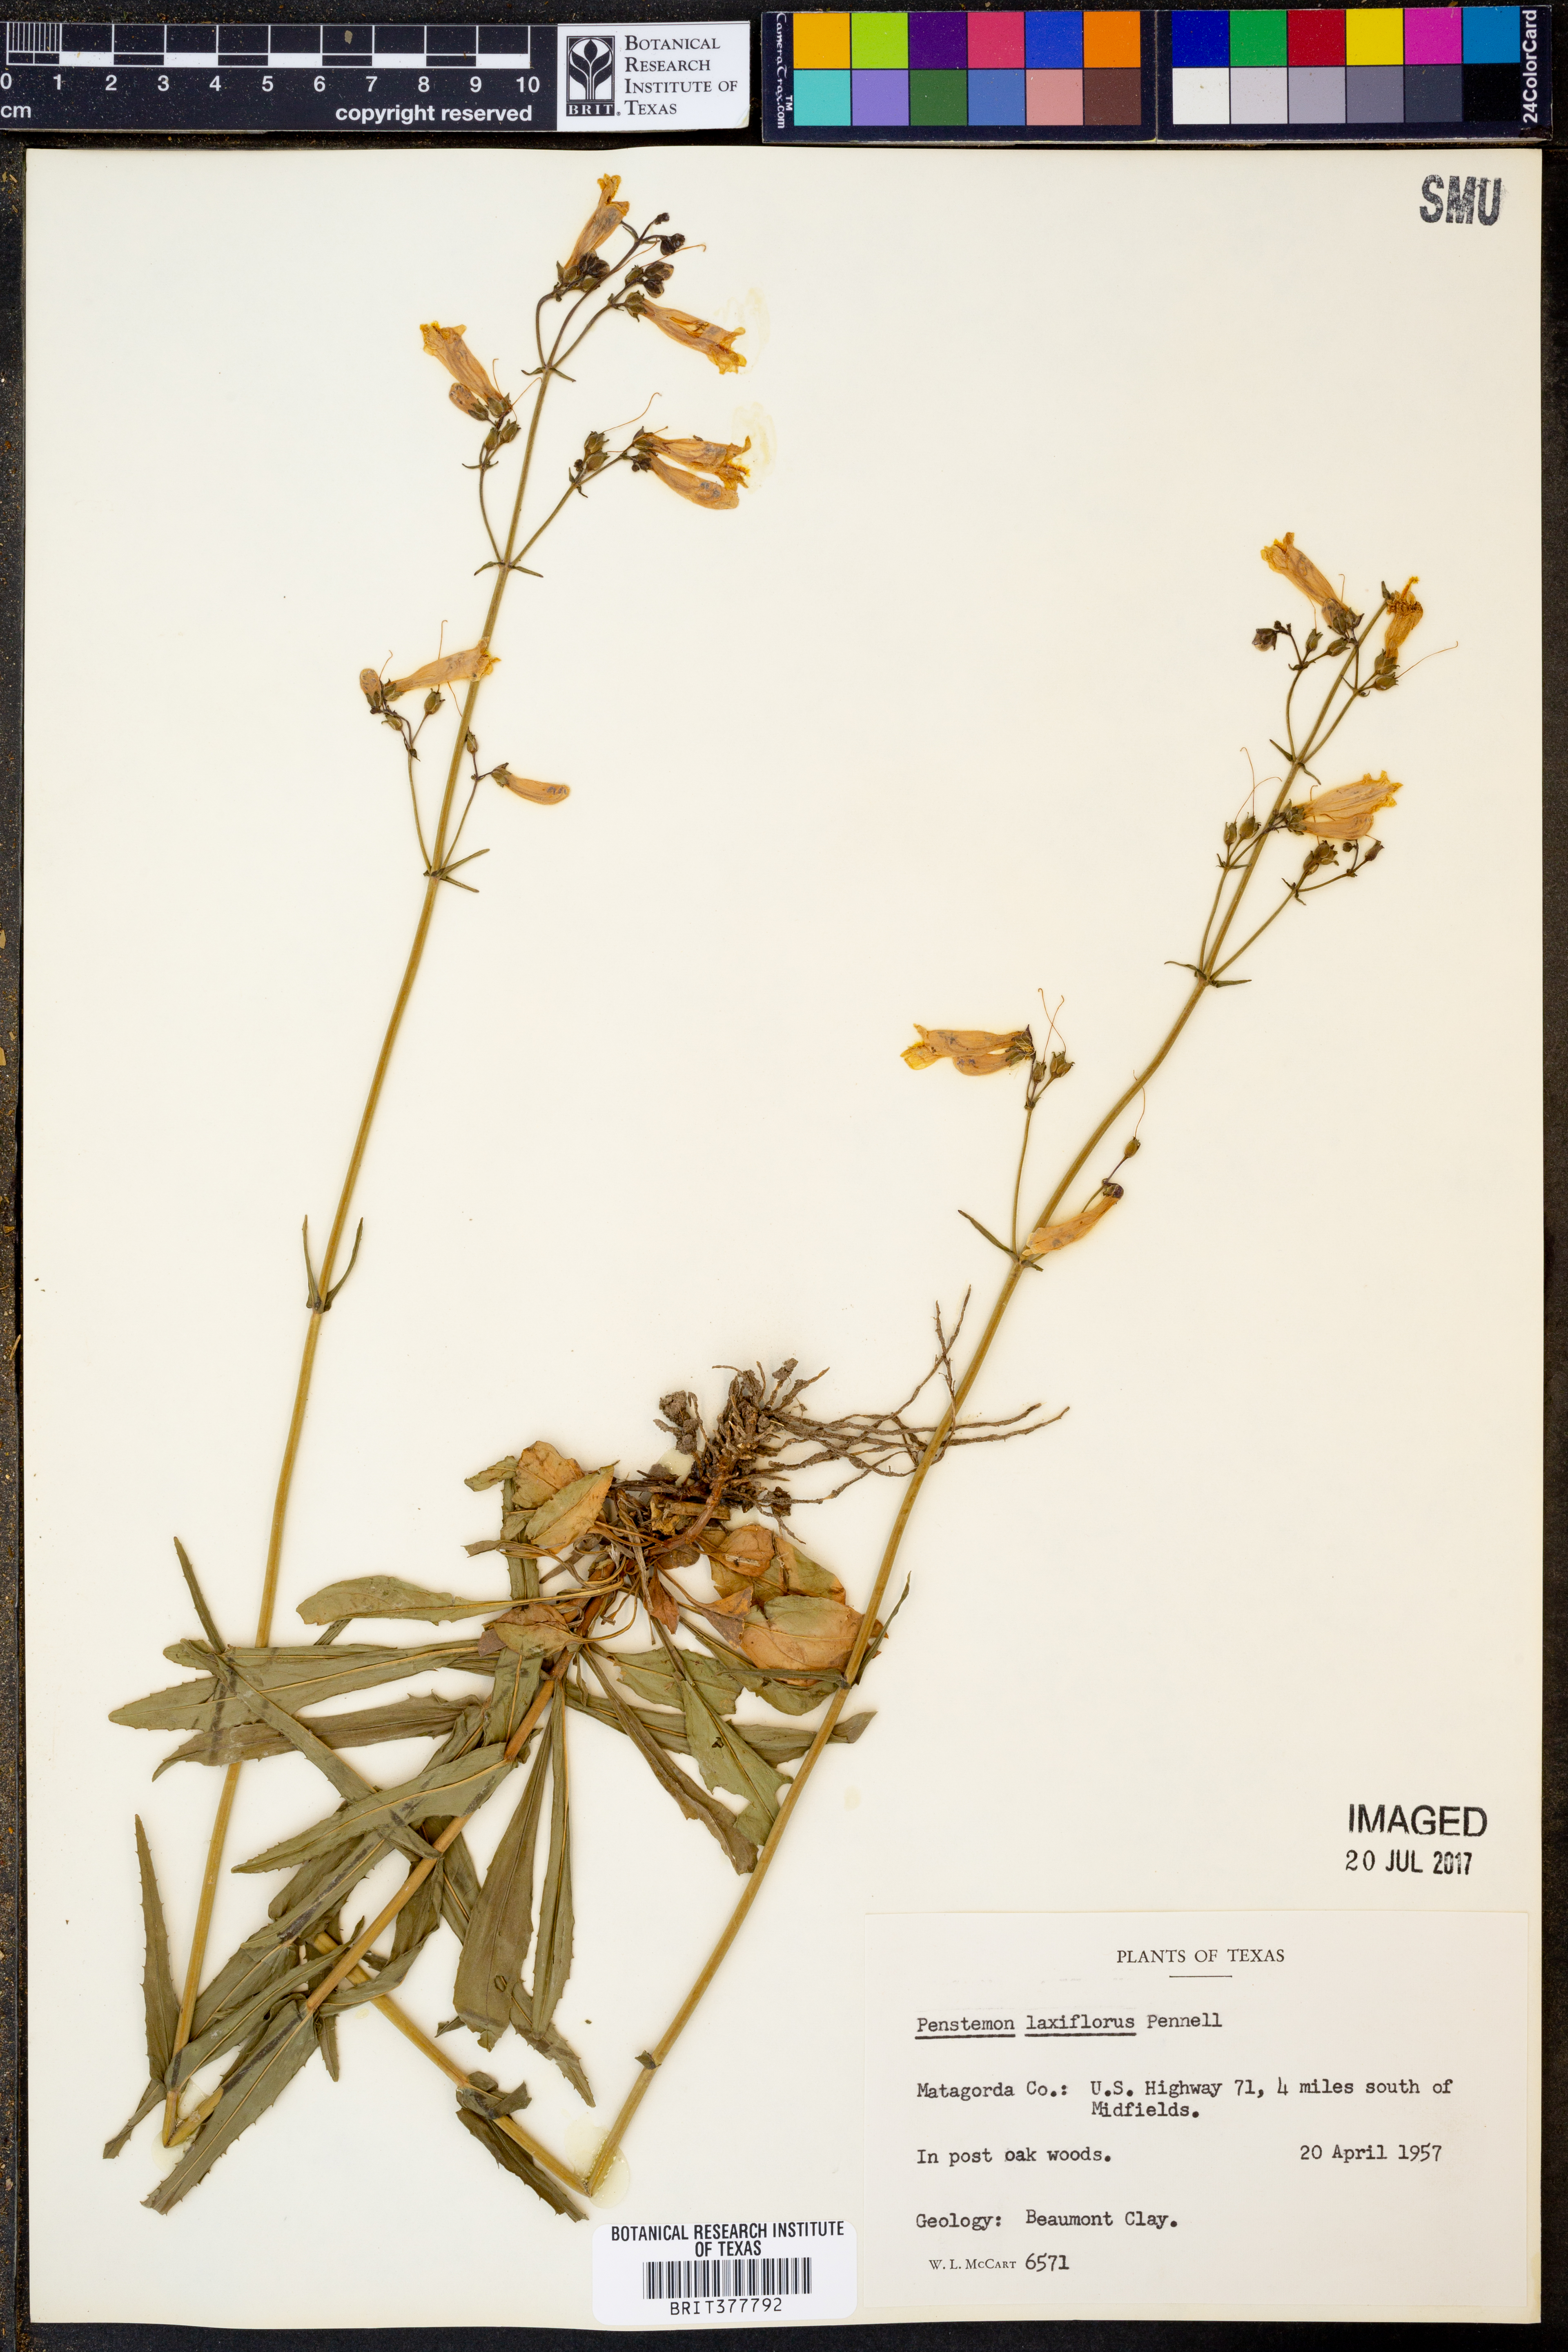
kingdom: Plantae
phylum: Tracheophyta
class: Magnoliopsida
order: Lamiales
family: Plantaginaceae
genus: Penstemon
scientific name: Penstemon laxiflorus
